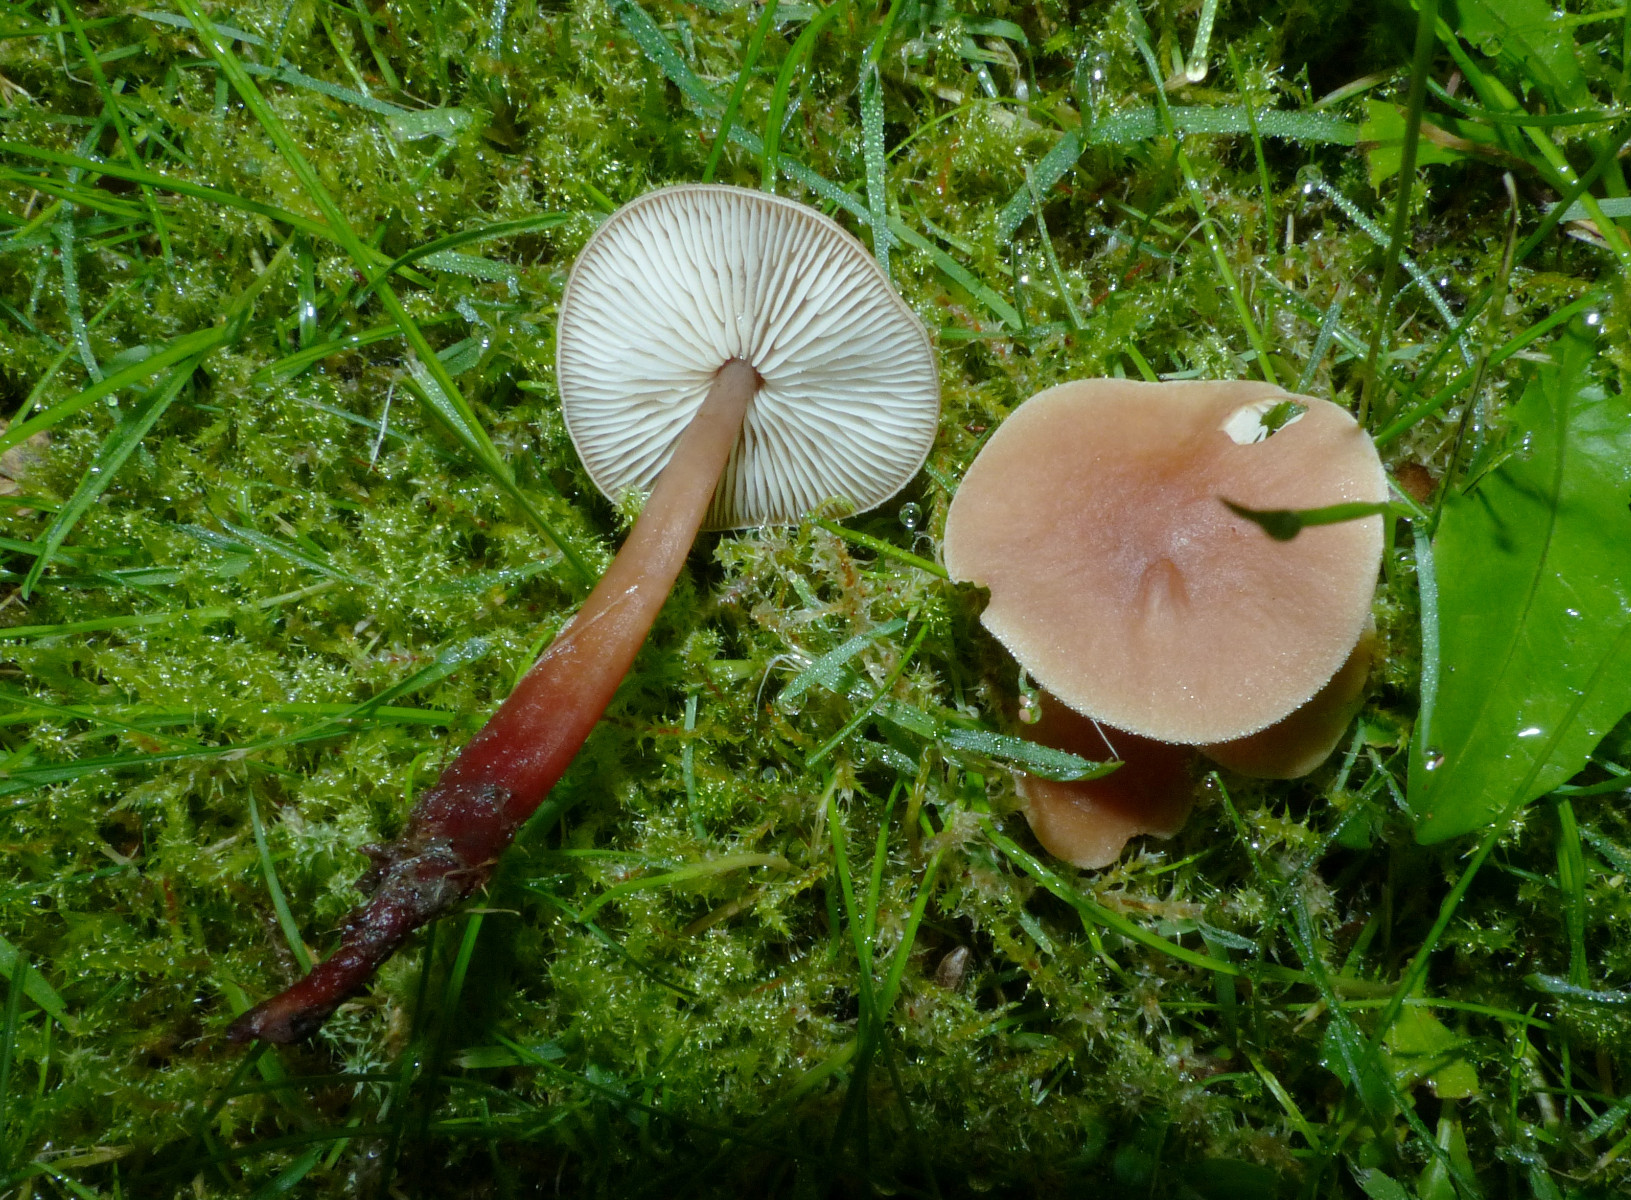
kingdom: Fungi
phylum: Basidiomycota
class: Agaricomycetes
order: Agaricales
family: Omphalotaceae
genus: Gymnopus
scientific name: Gymnopus erythropus
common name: rødstokket fladhat
